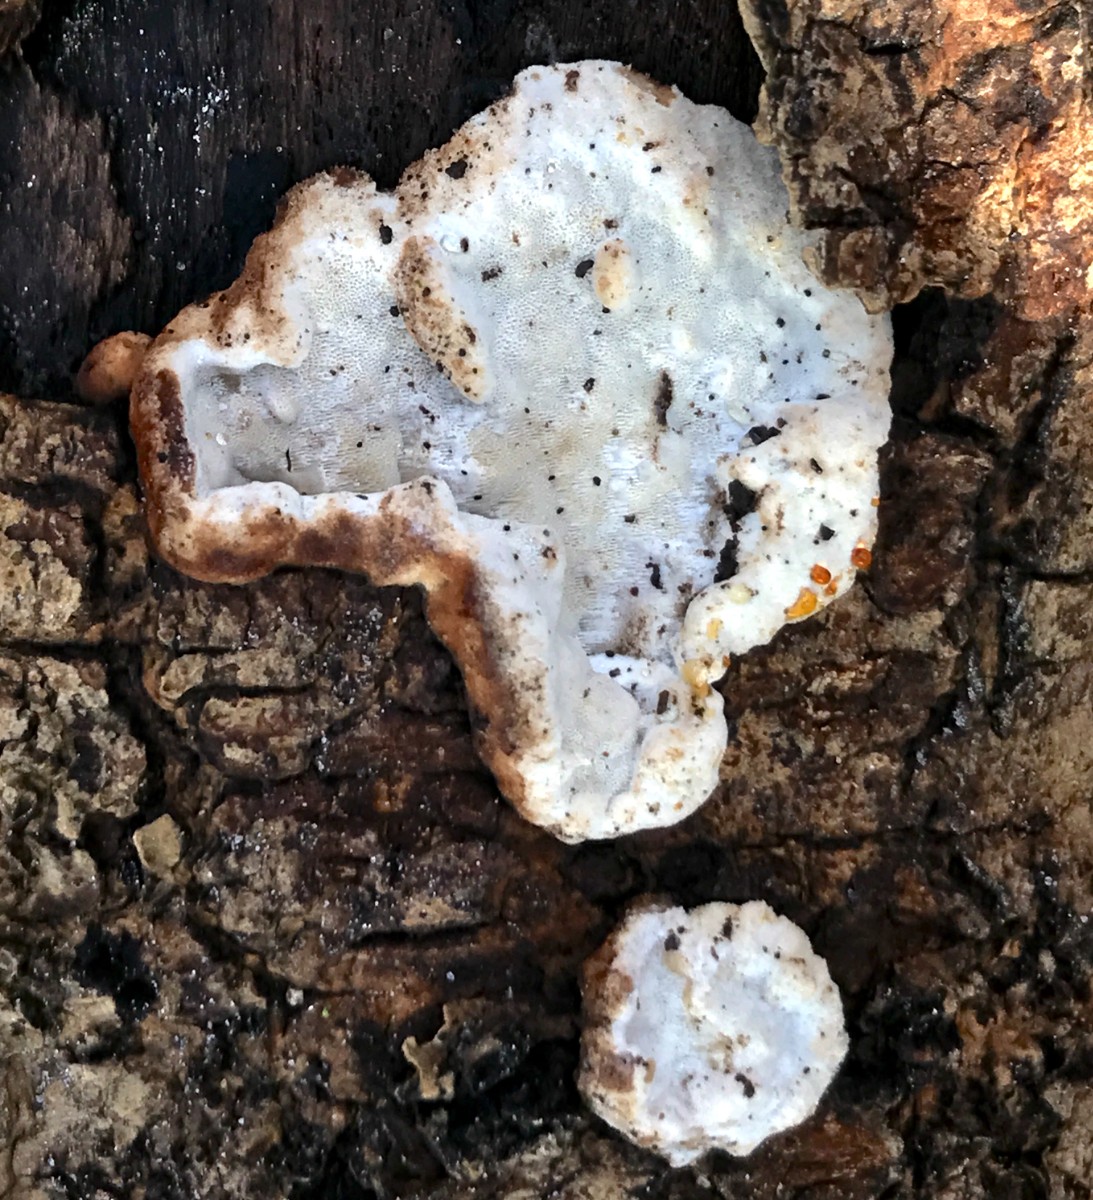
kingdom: Fungi
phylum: Basidiomycota
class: Agaricomycetes
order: Polyporales
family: Incrustoporiaceae
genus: Skeletocutis
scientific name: Skeletocutis nemoralis
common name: stor krystalporesvamp
